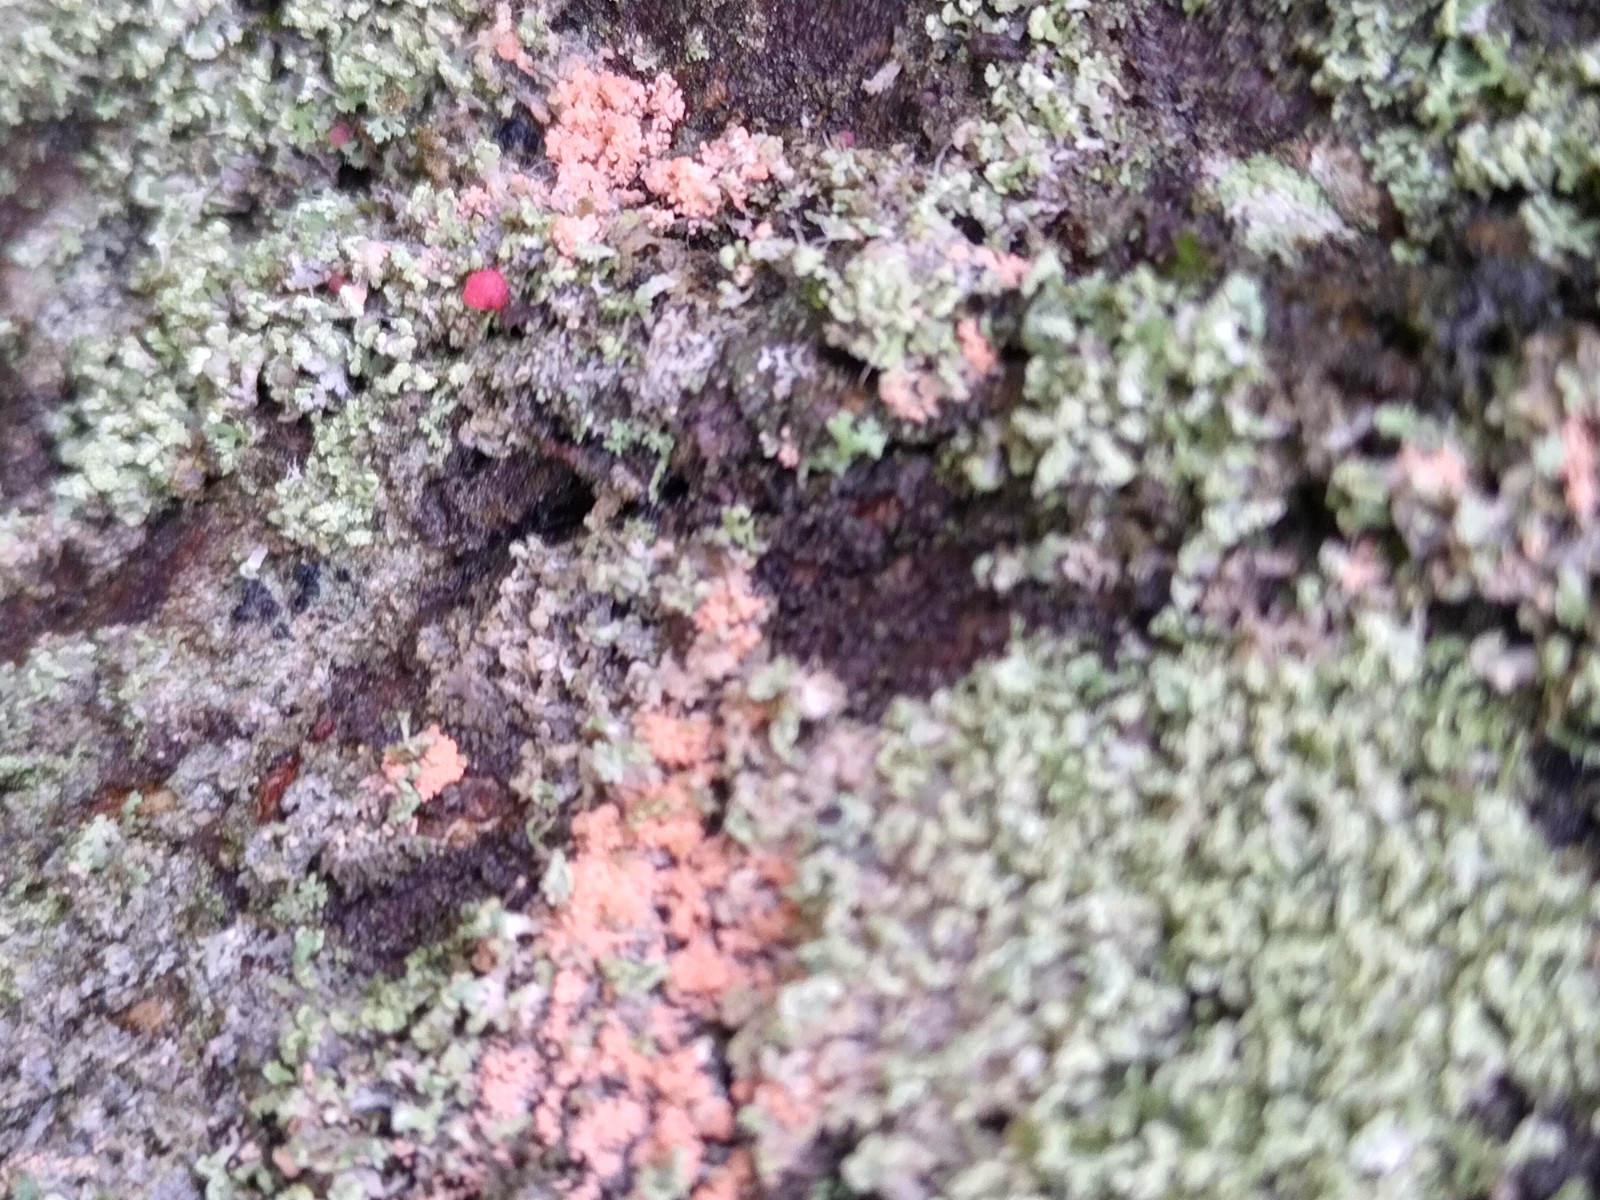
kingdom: Fungi
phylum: Ascomycota
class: Sordariomycetes
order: Hypocreales
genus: Illosporiopsis
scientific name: Illosporiopsis christiansenii
